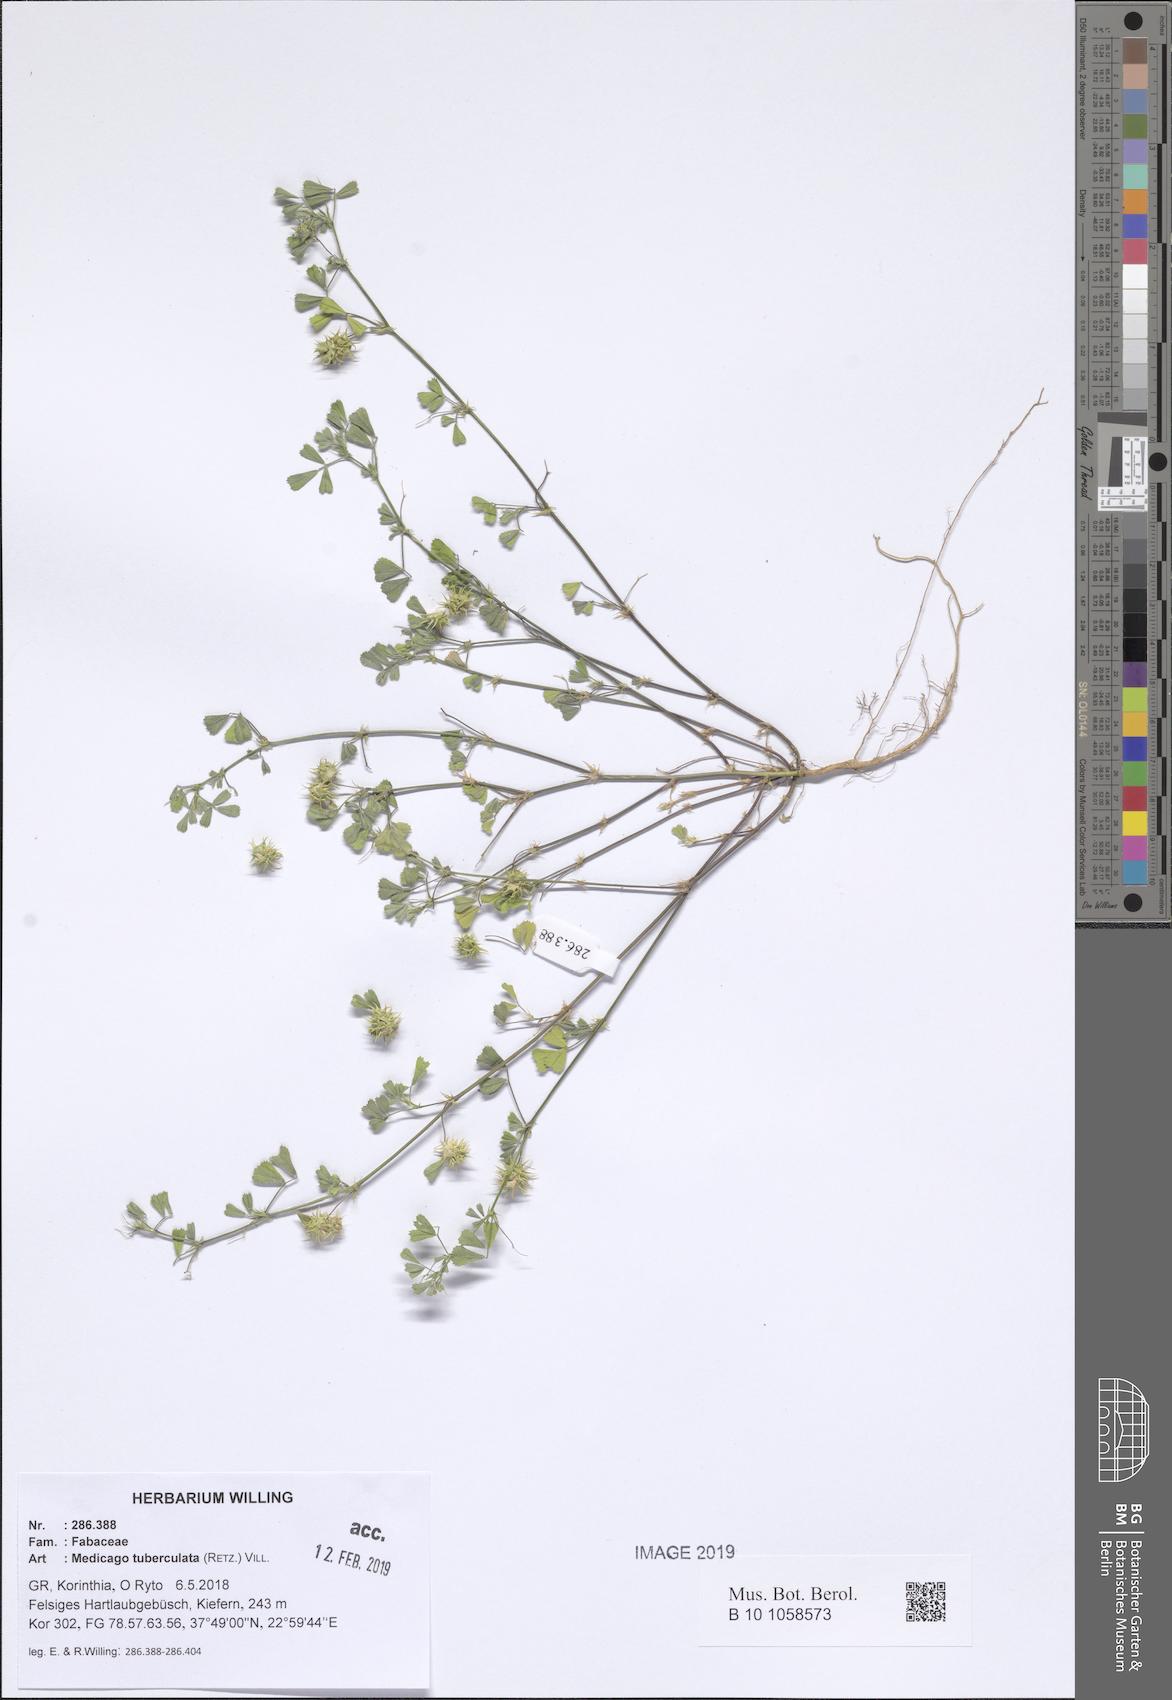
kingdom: Plantae
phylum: Tracheophyta
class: Magnoliopsida
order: Fabales
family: Fabaceae
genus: Medicago
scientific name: Medicago turbinata
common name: Southern medick
